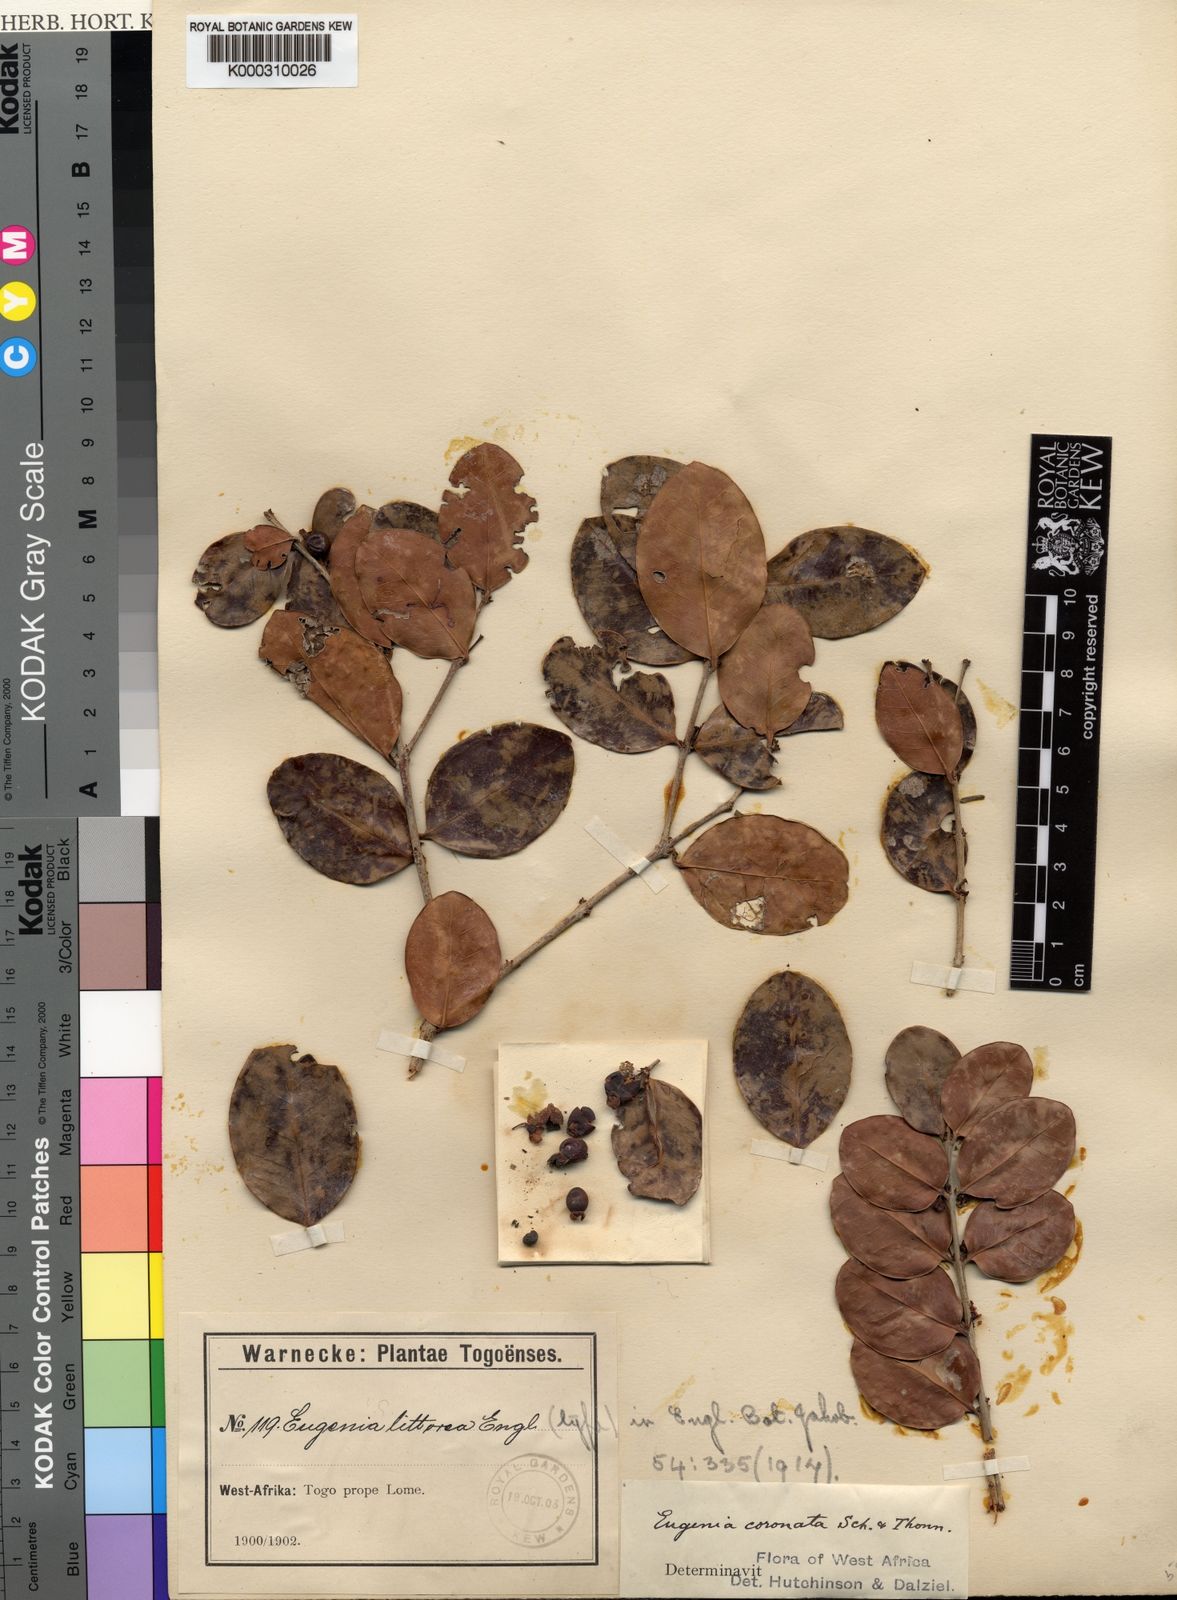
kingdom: Plantae
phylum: Tracheophyta
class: Magnoliopsida
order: Myrtales
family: Myrtaceae
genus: Eugenia
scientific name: Eugenia
